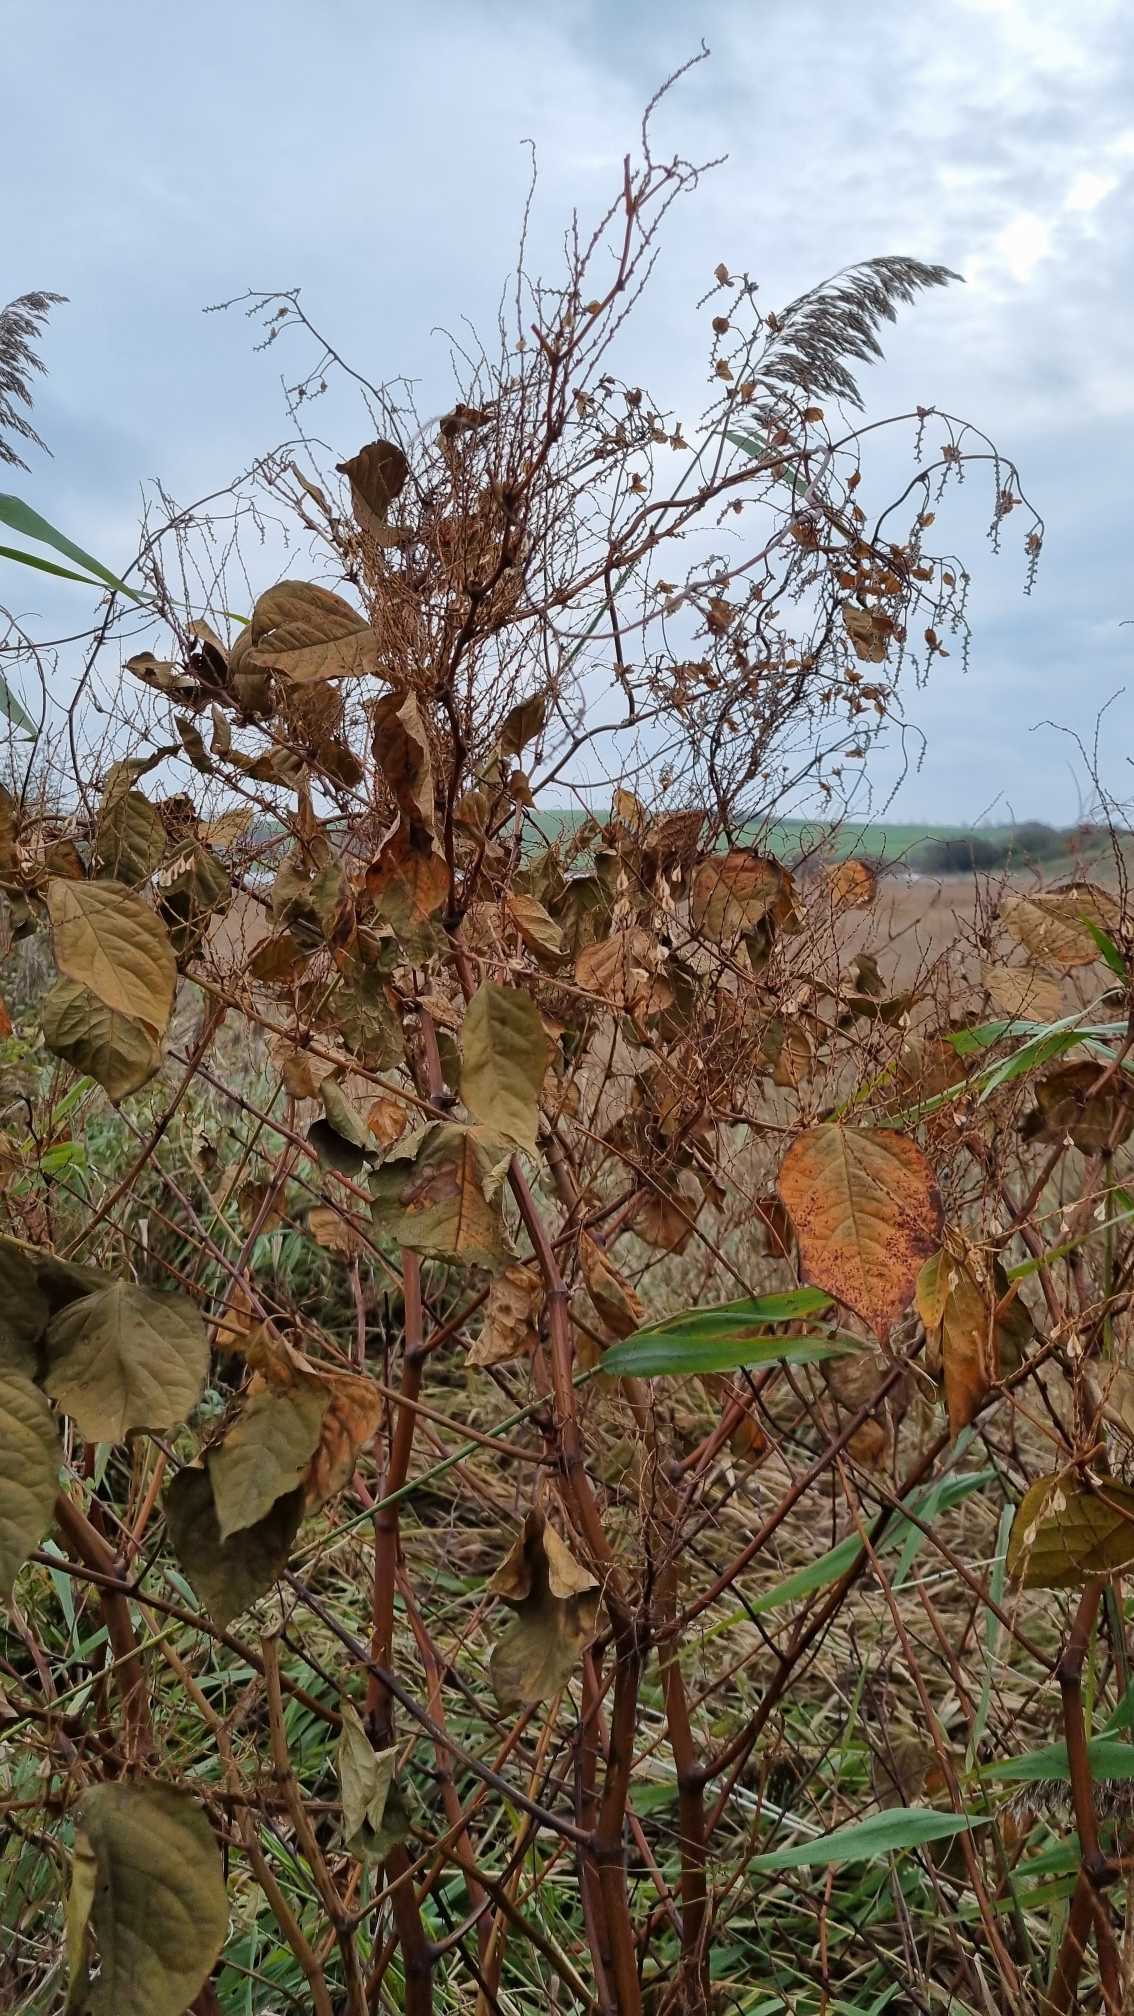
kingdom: Plantae
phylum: Tracheophyta
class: Magnoliopsida
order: Caryophyllales
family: Polygonaceae
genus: Reynoutria
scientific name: Reynoutria japonica
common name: Japan-pileurt
